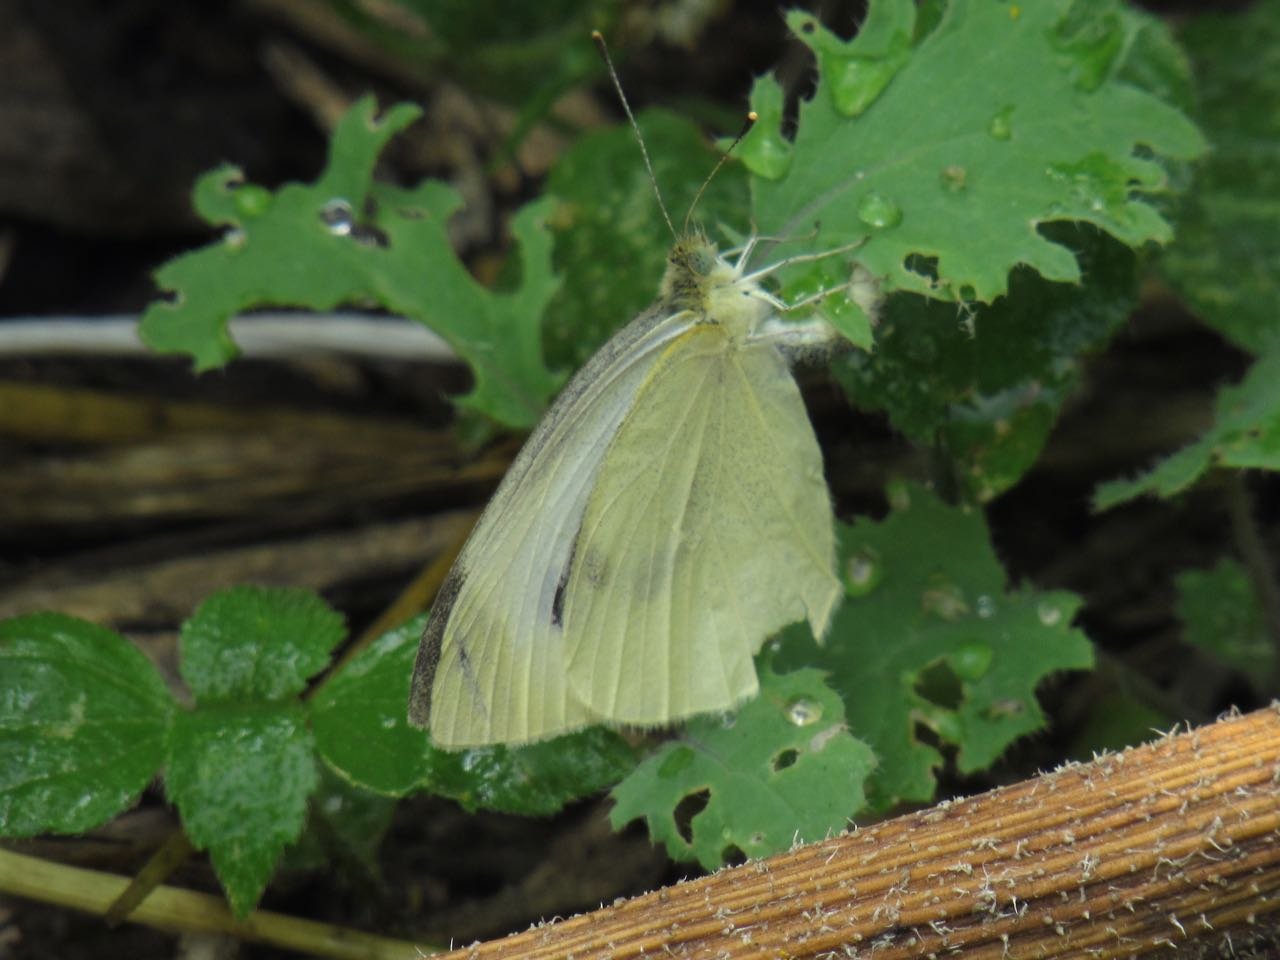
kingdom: Animalia
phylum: Arthropoda
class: Insecta
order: Lepidoptera
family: Pieridae
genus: Pieris
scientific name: Pieris rapae
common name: Cabbage White
